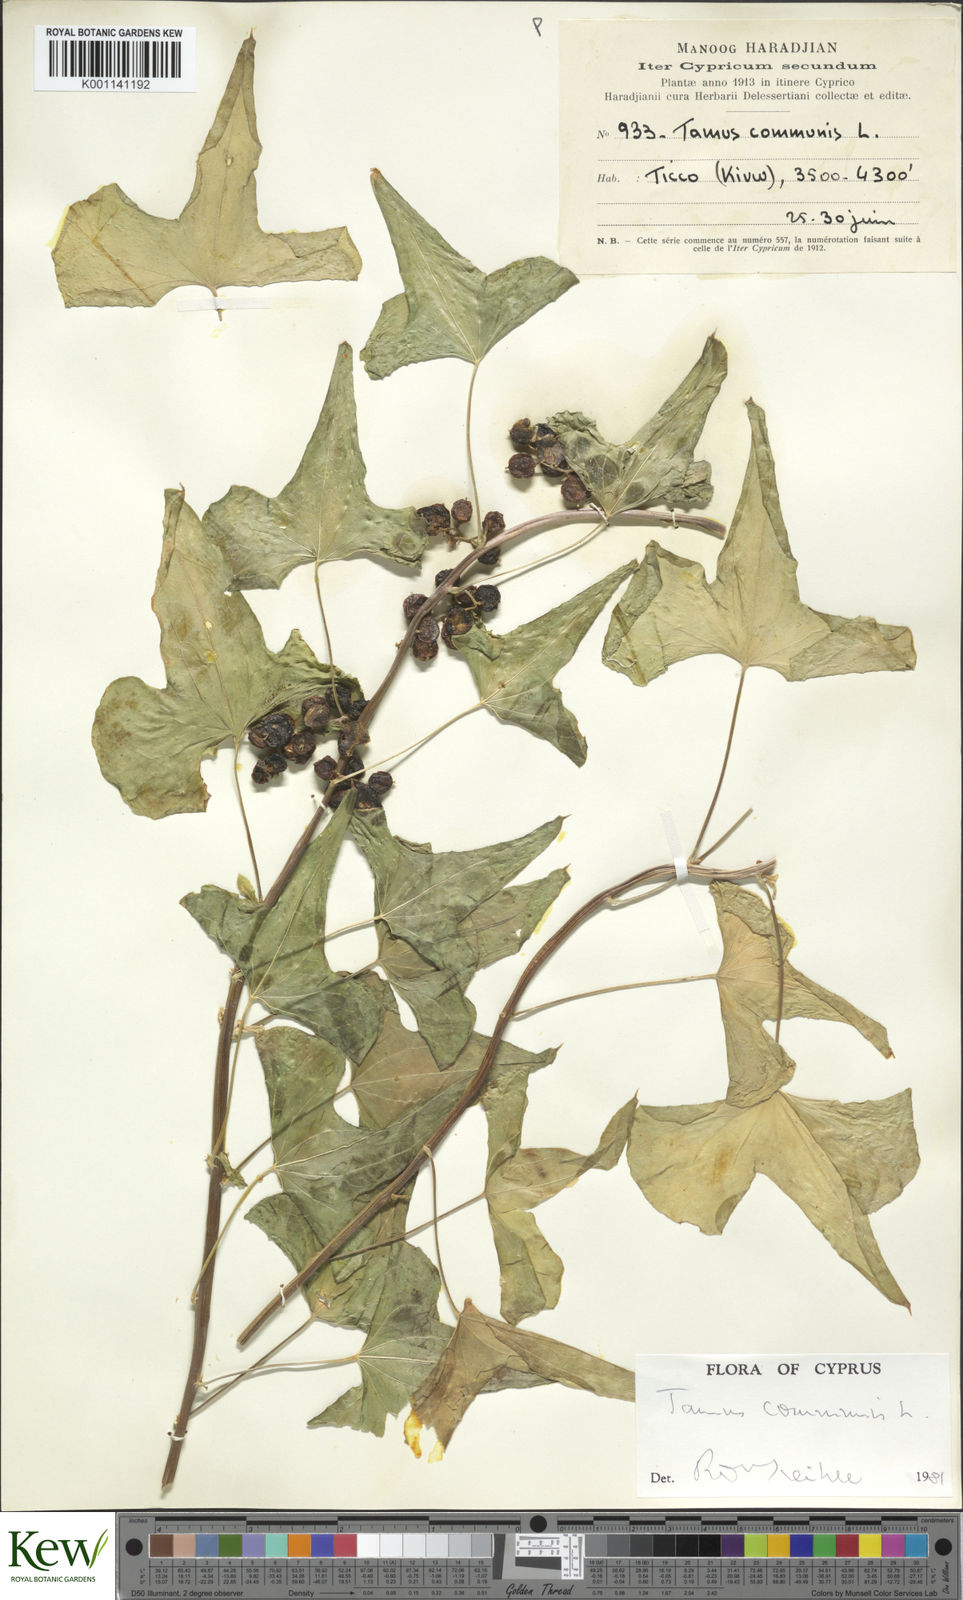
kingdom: Plantae
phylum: Tracheophyta
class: Liliopsida
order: Dioscoreales
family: Dioscoreaceae
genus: Dioscorea
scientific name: Dioscorea communis
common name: Black-bindweed
